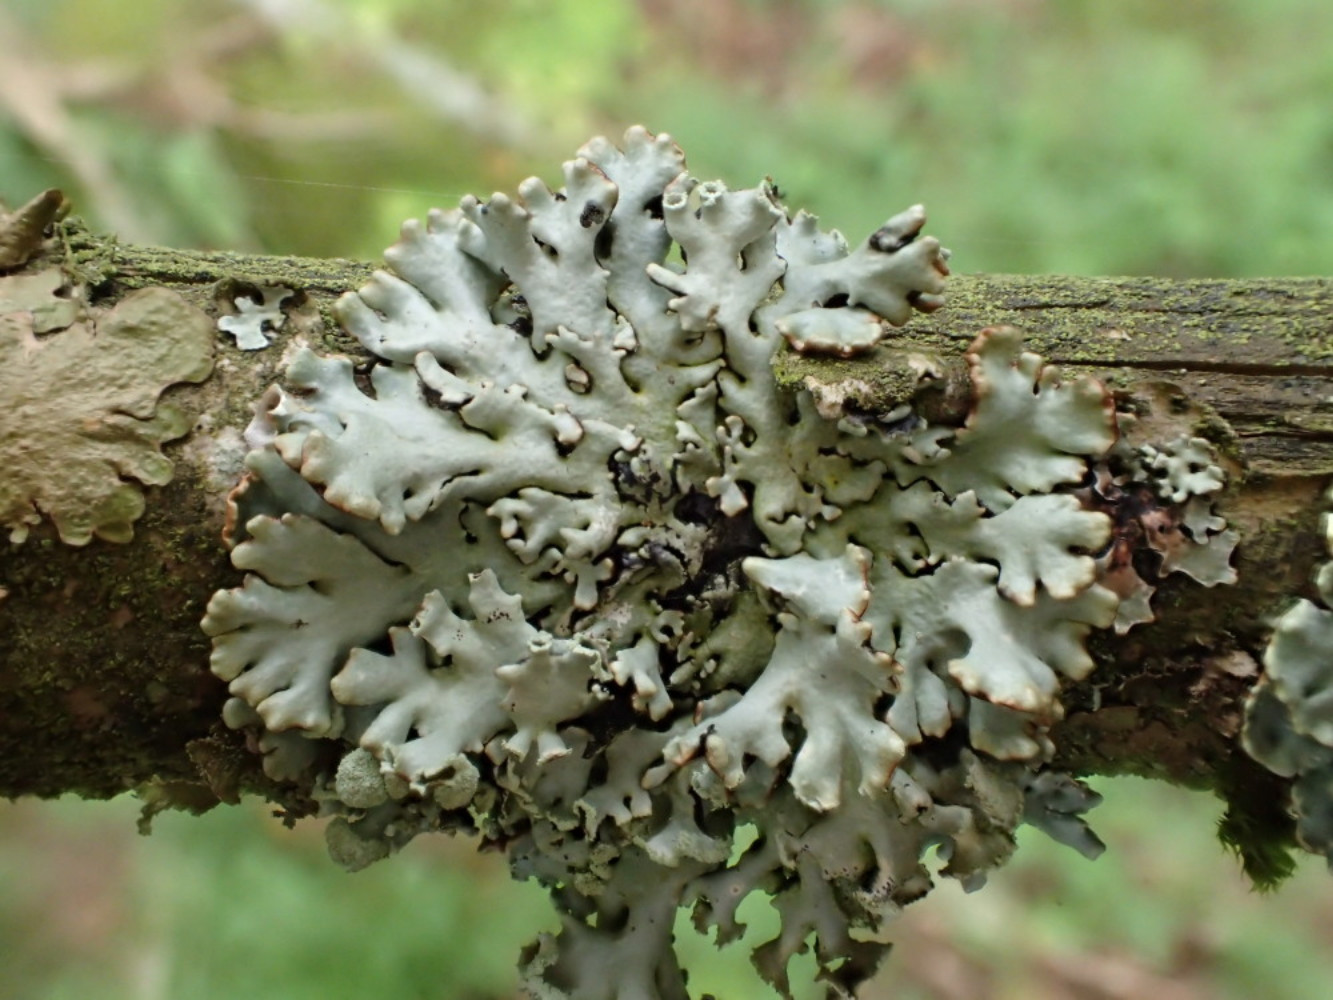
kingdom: Fungi
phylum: Ascomycota
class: Lecanoromycetes
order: Lecanorales
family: Parmeliaceae
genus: Hypogymnia
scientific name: Hypogymnia physodes
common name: almindelig kvistlav
